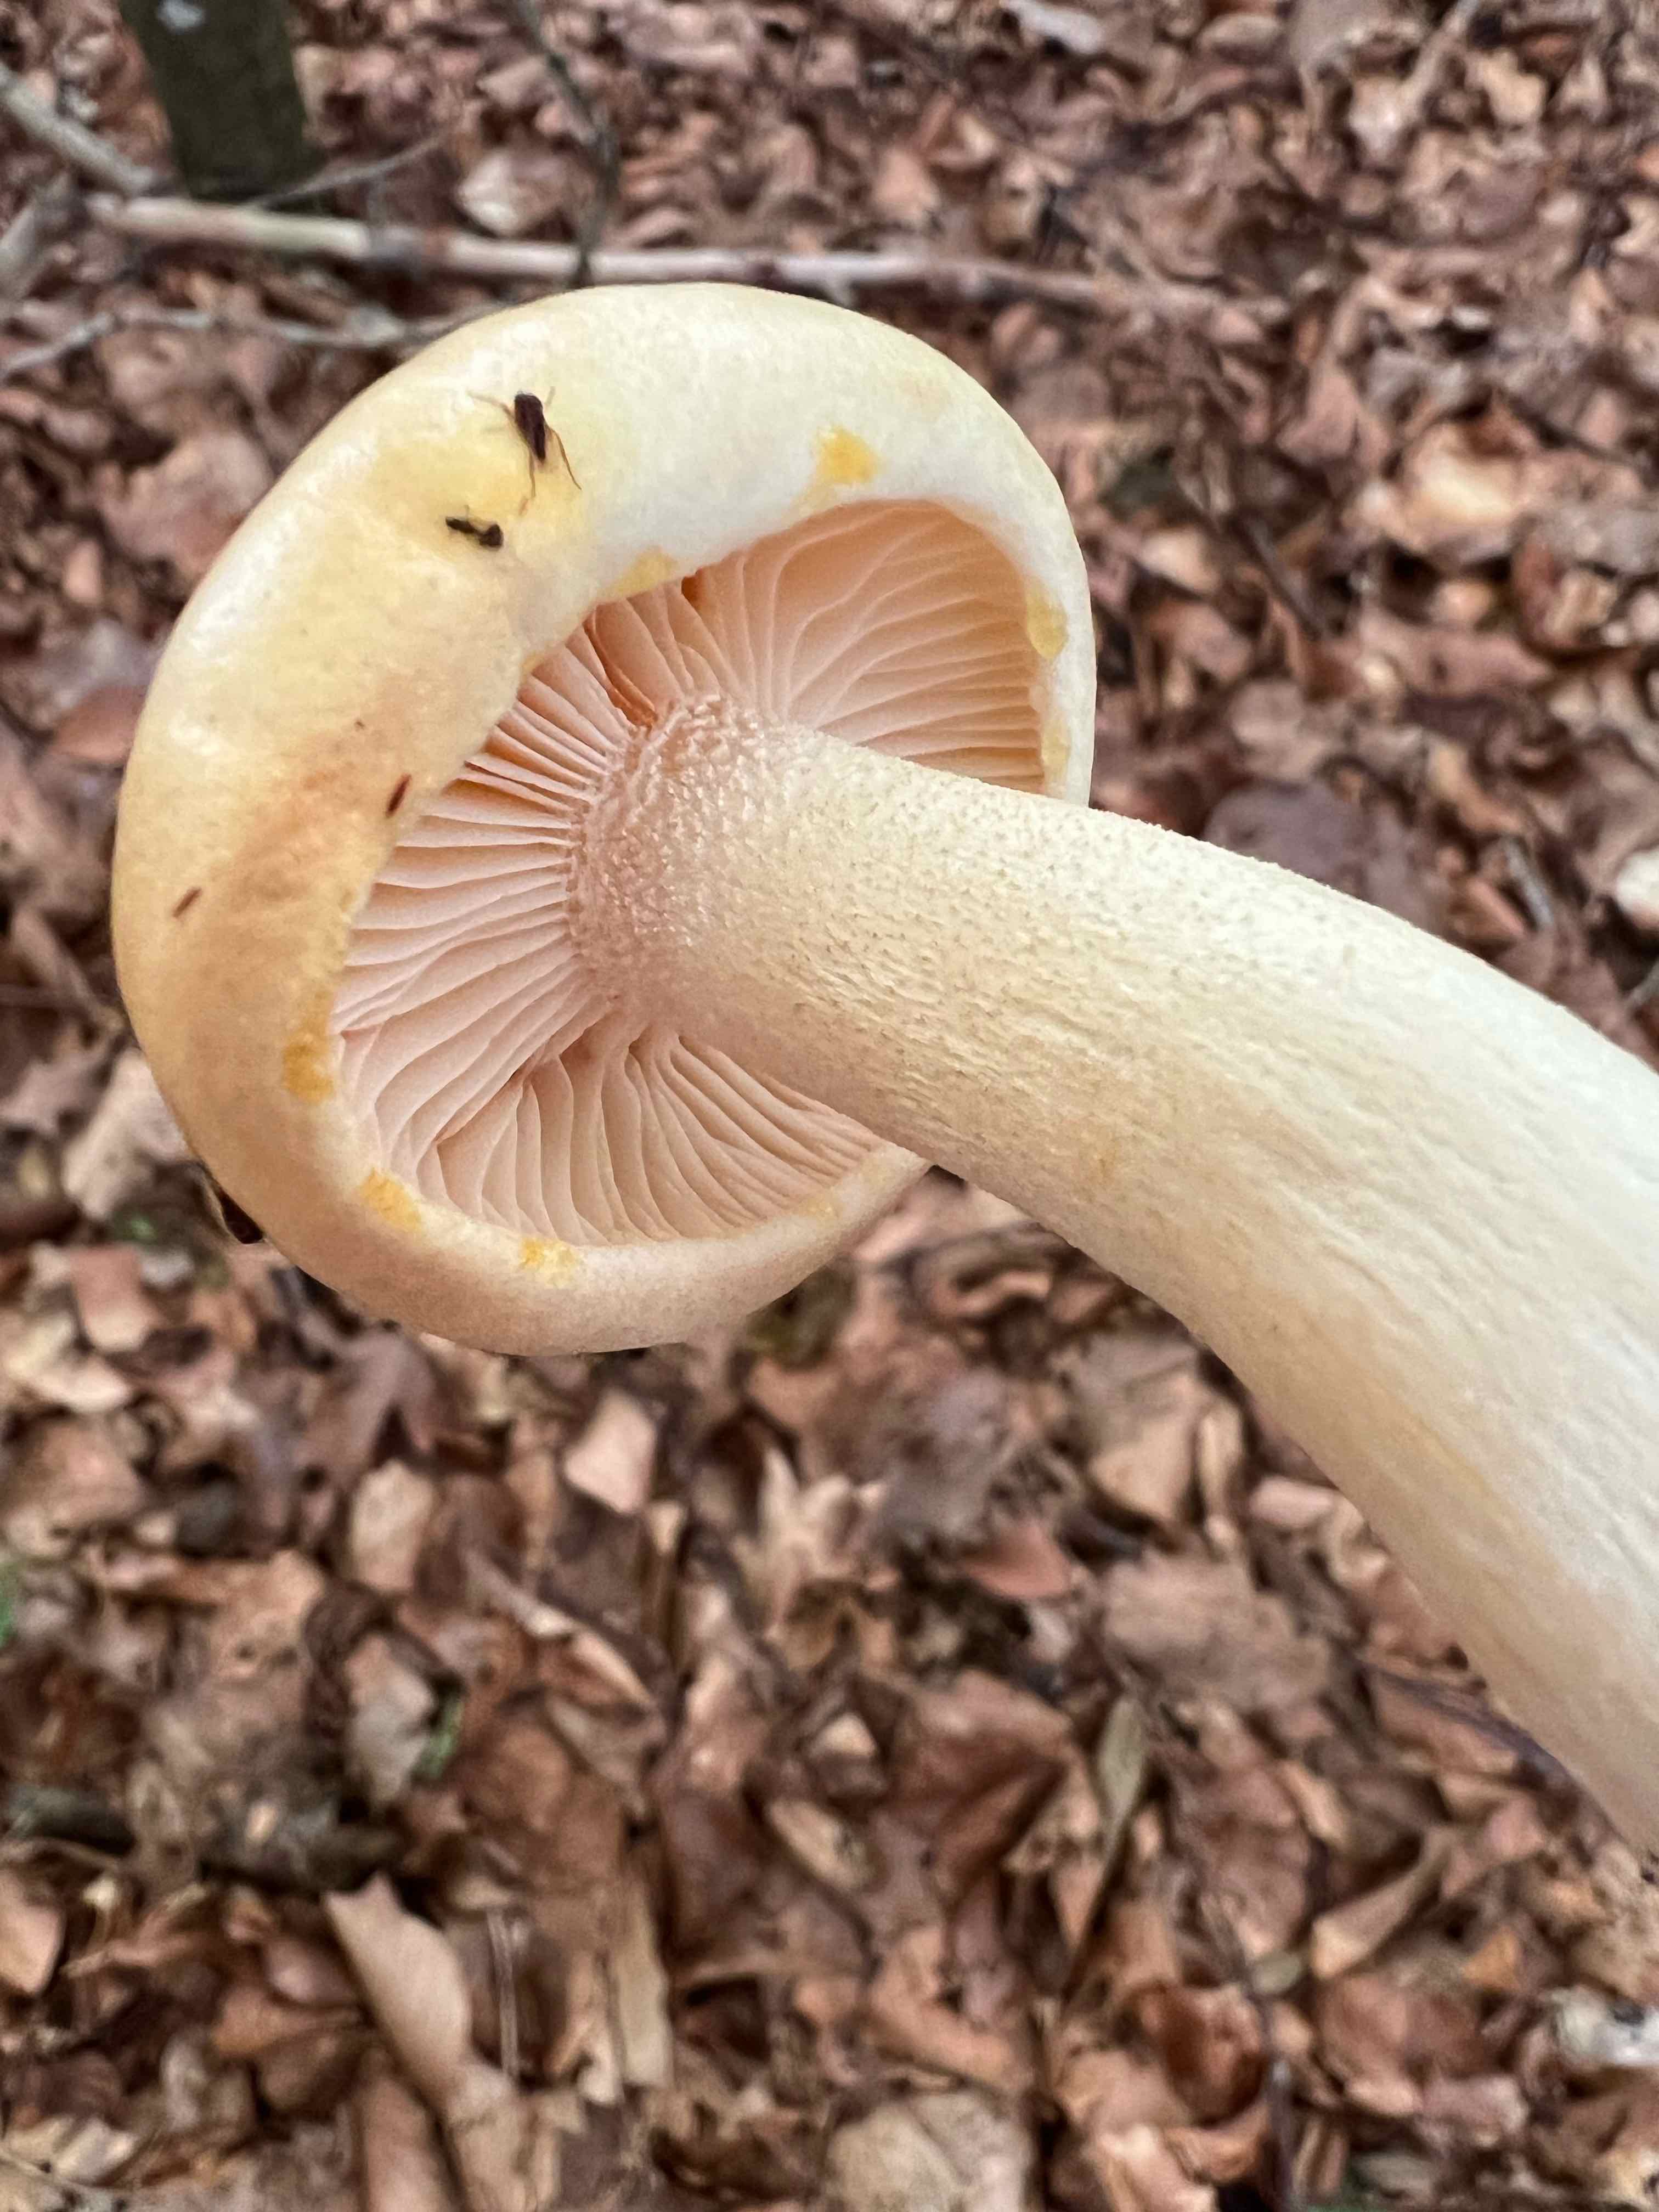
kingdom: Fungi
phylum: Basidiomycota
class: Agaricomycetes
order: Agaricales
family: Hygrophoraceae
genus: Hygrophorus
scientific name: Hygrophorus
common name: sneglehat
